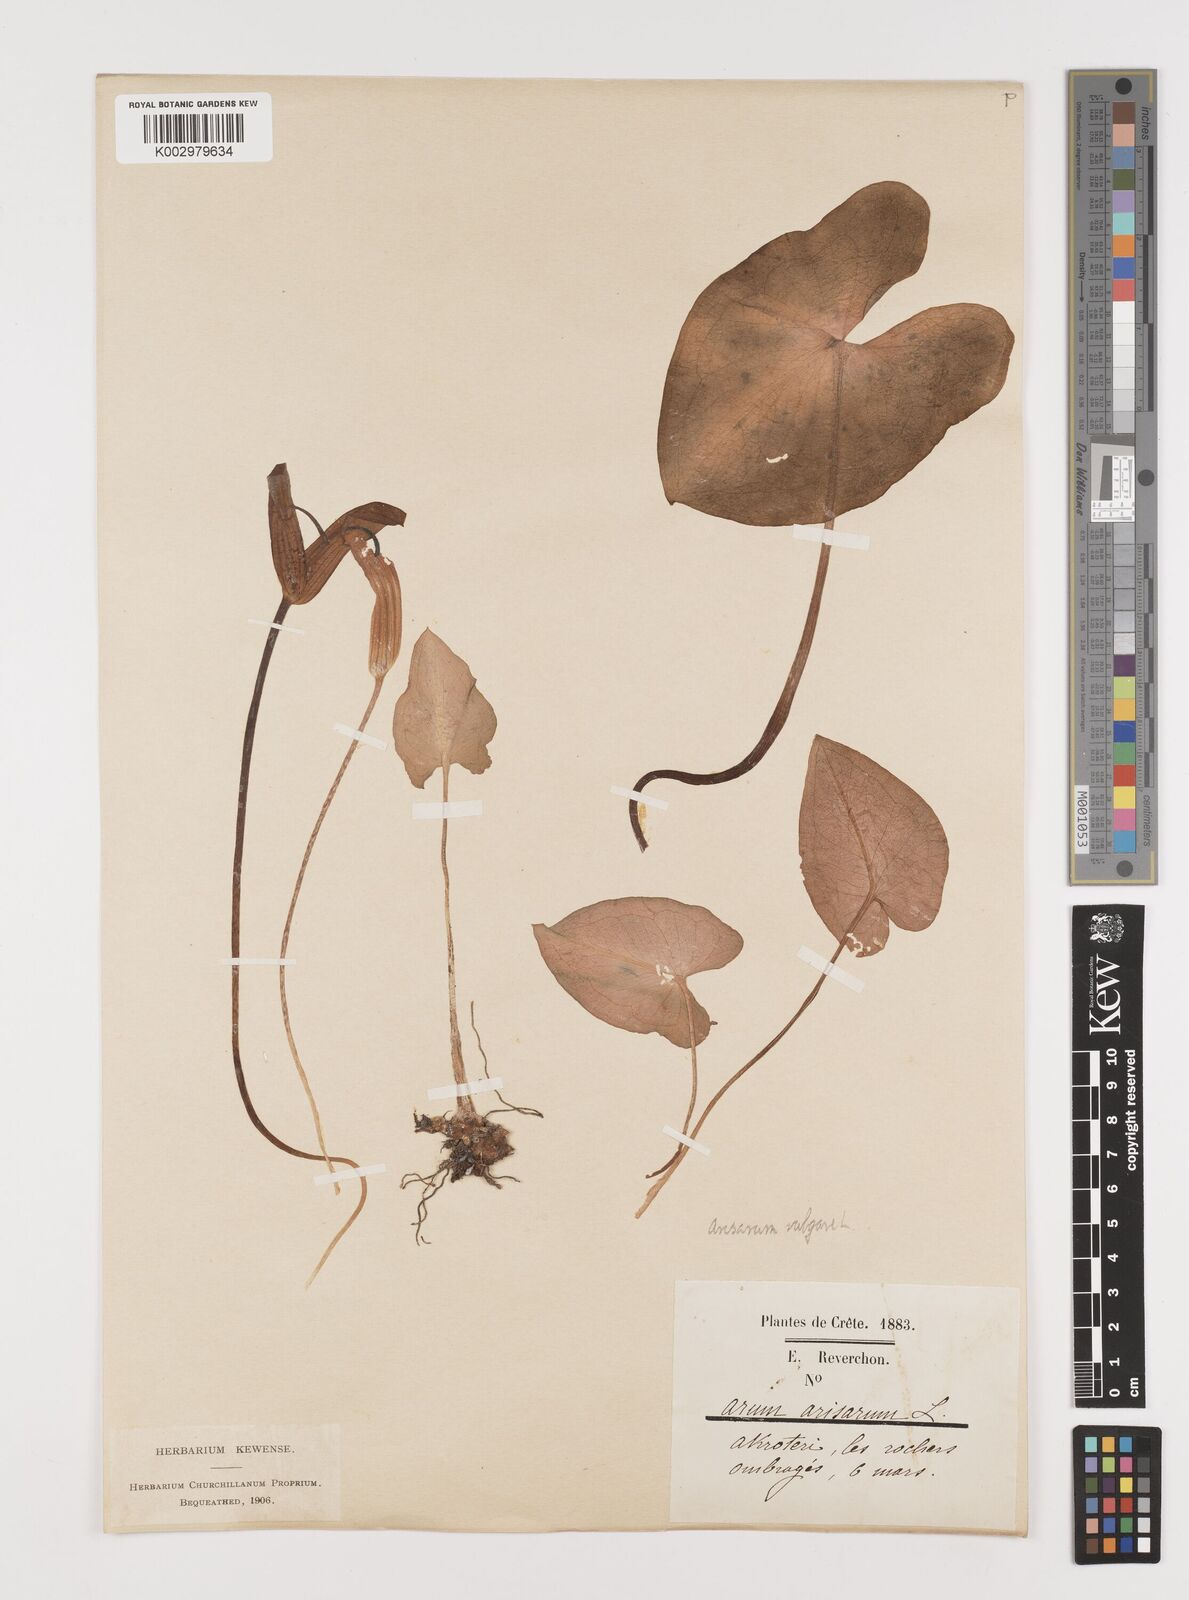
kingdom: Plantae
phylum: Tracheophyta
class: Liliopsida
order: Alismatales
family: Araceae
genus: Arisarum
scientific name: Arisarum vulgare
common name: Common arisarum
